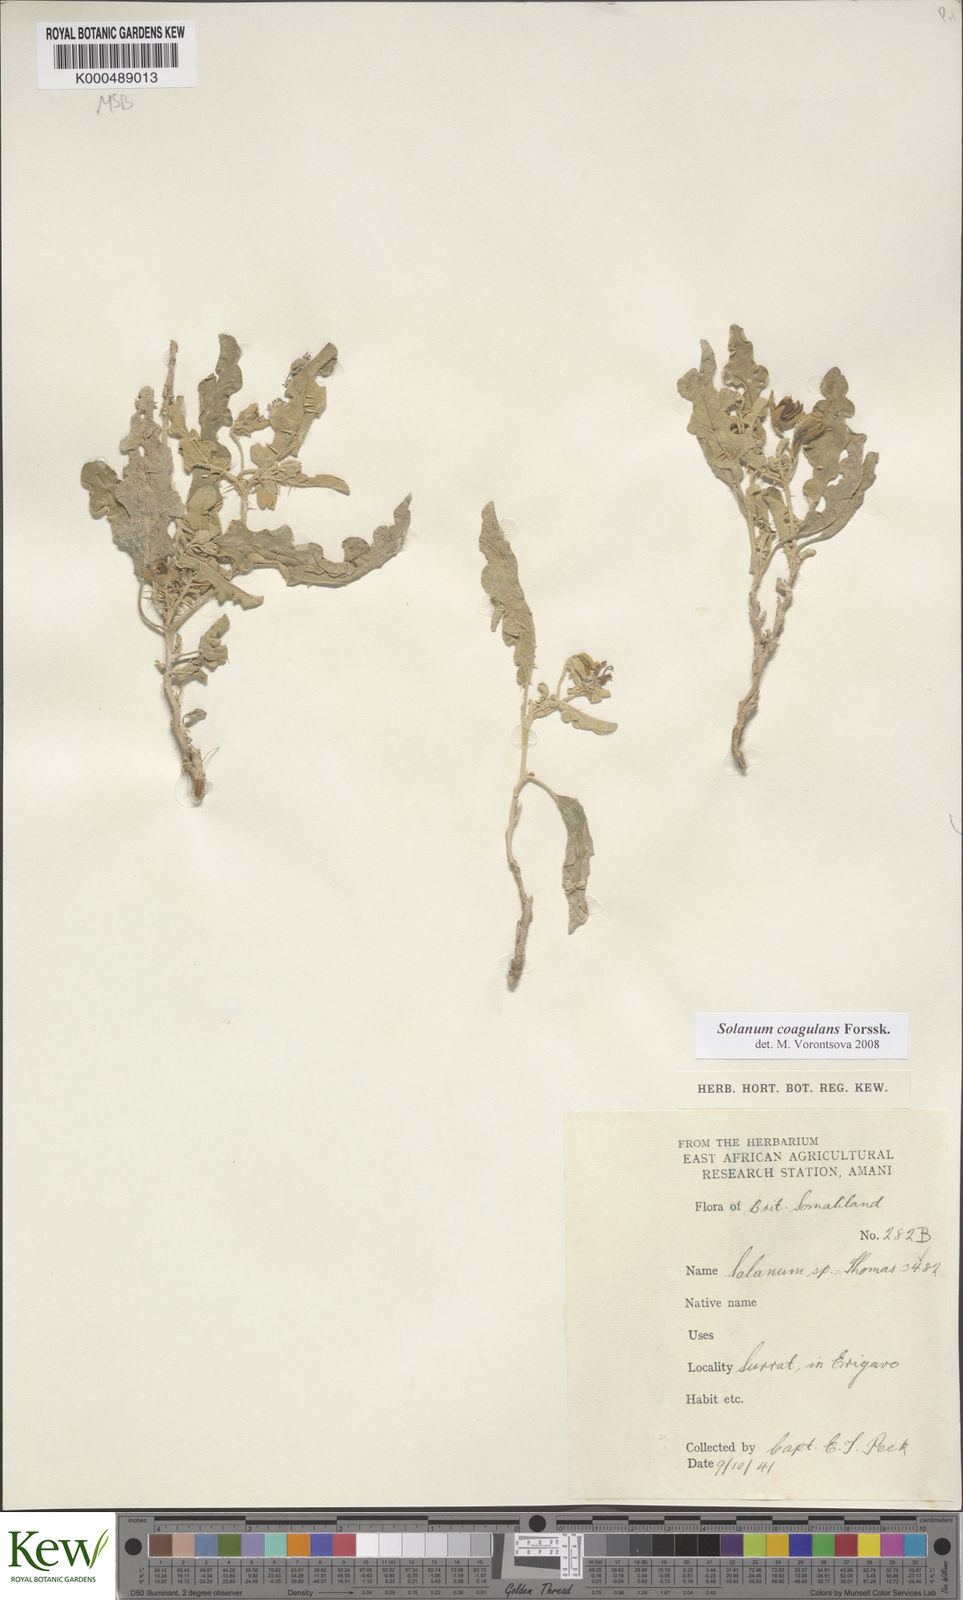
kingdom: Plantae
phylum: Tracheophyta
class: Magnoliopsida
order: Solanales
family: Solanaceae
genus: Solanum
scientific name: Solanum coagulans
